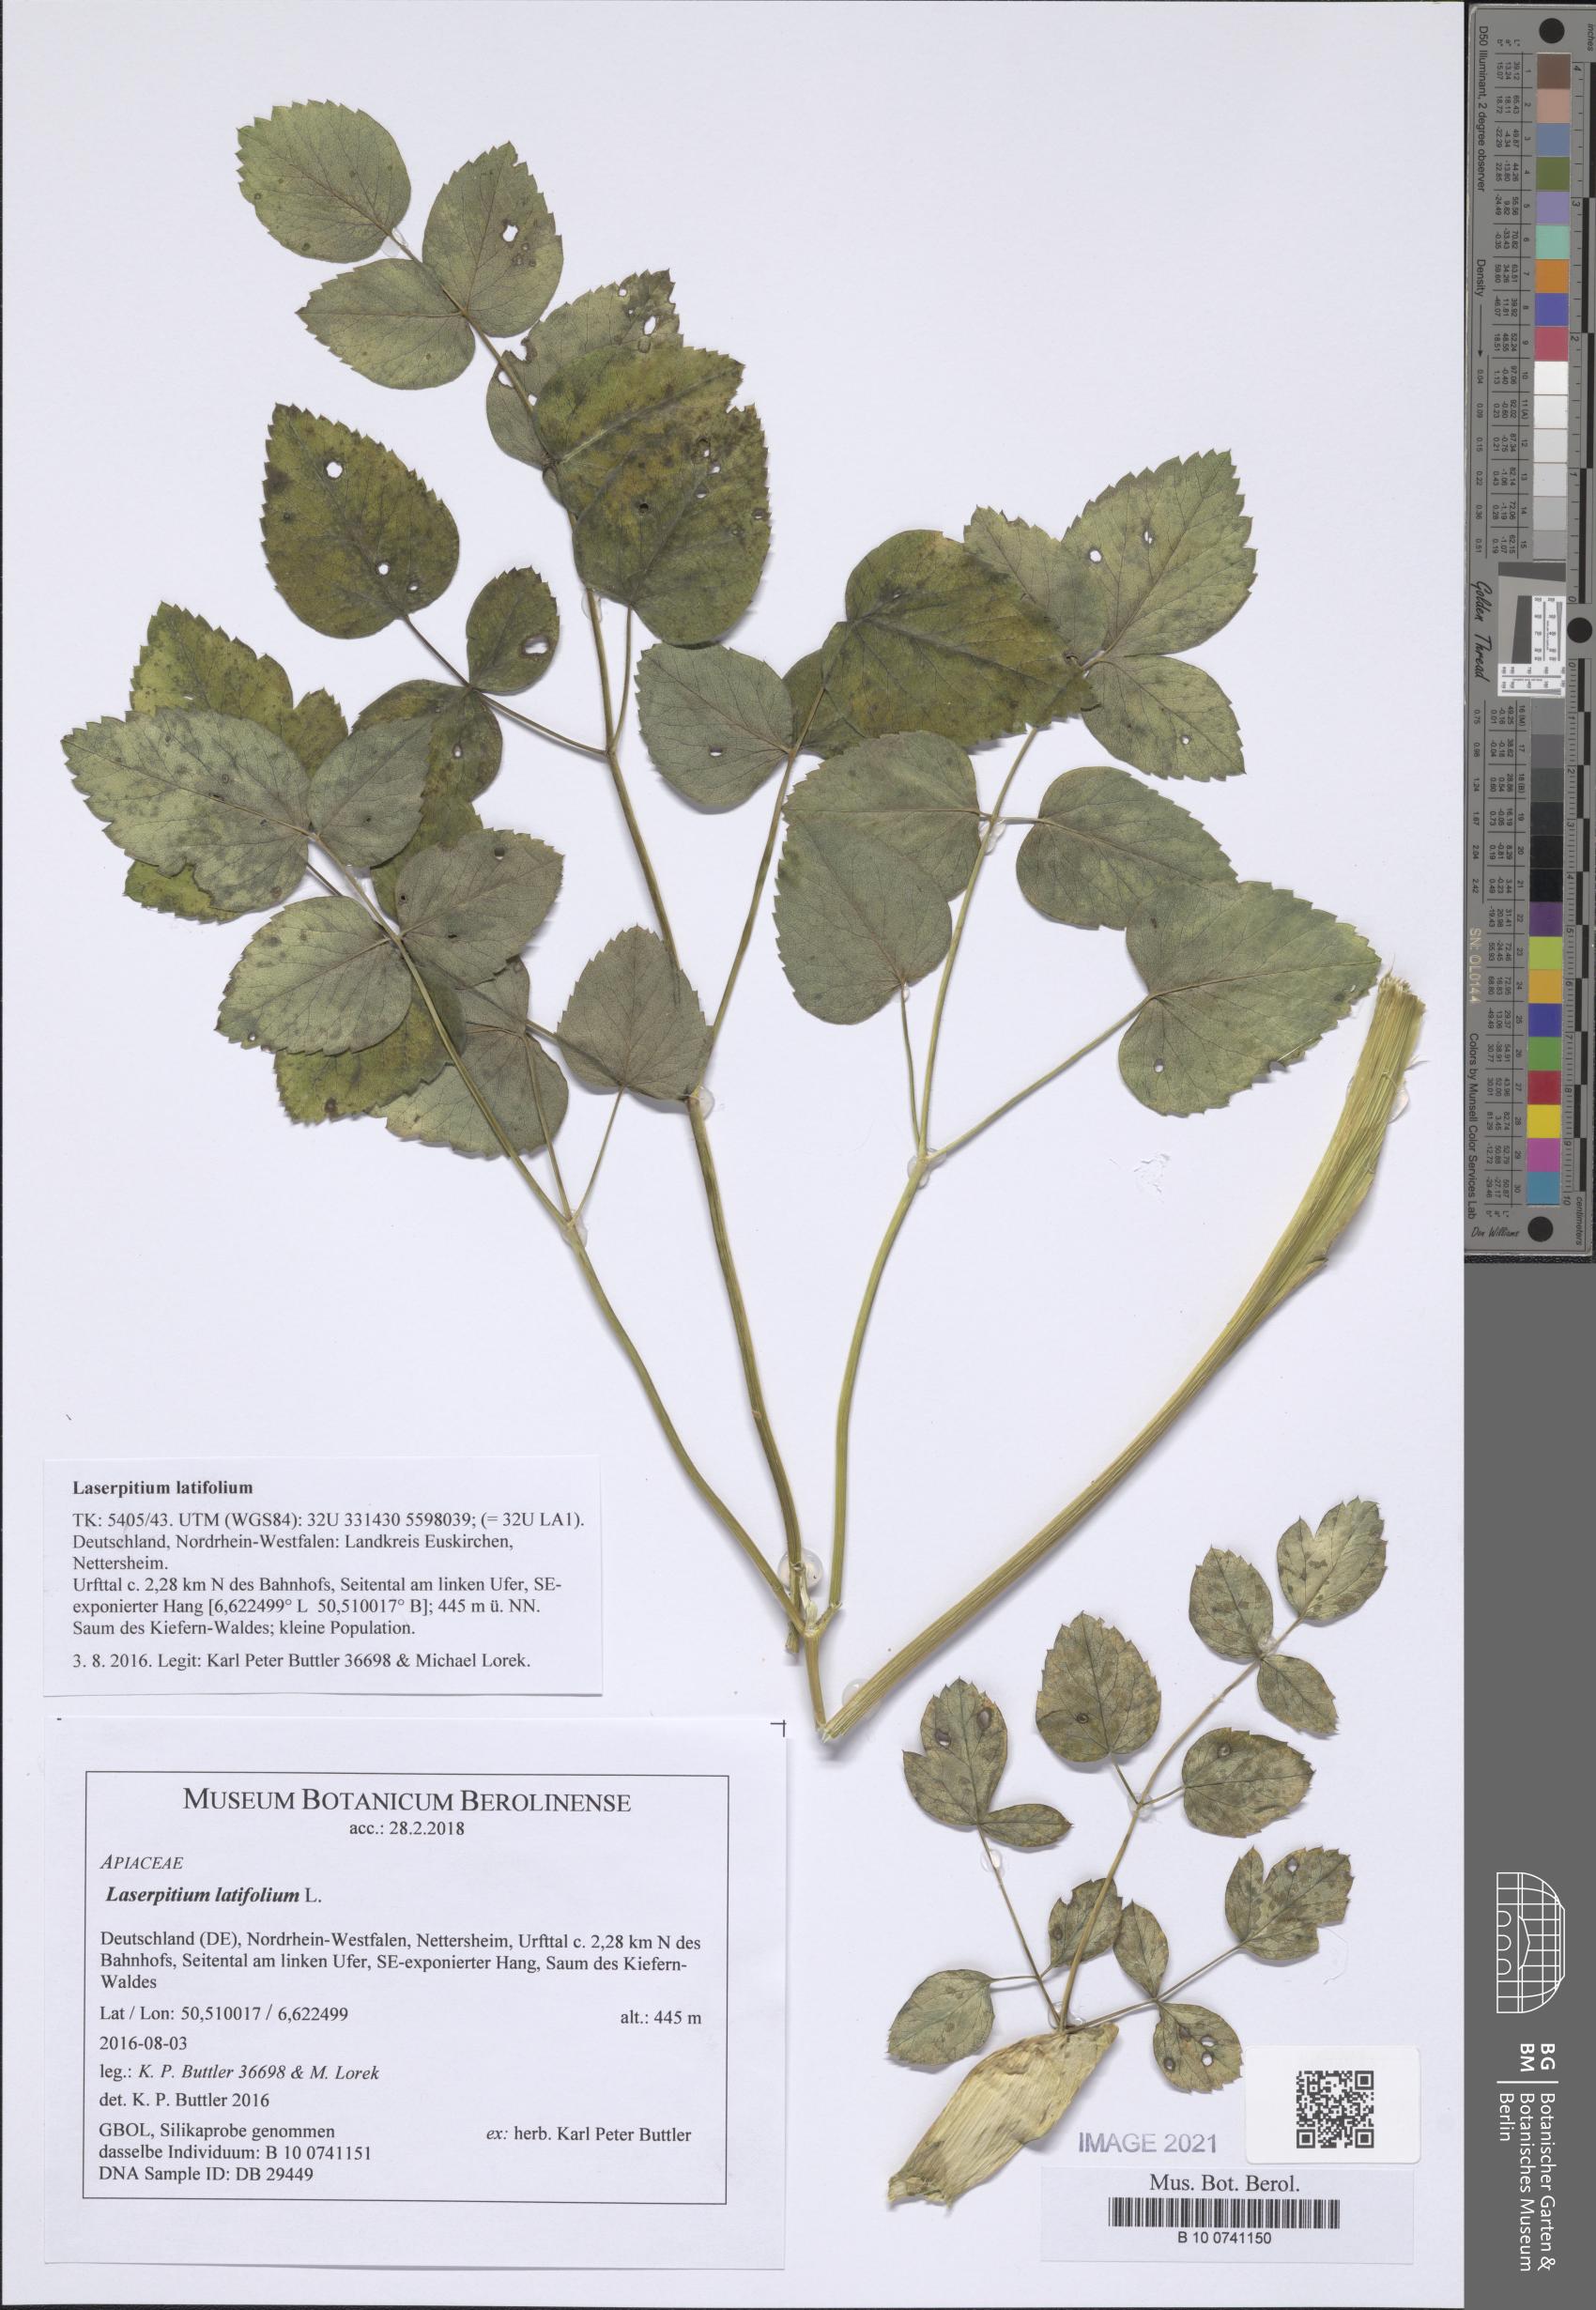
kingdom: Plantae
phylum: Tracheophyta
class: Magnoliopsida
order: Apiales
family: Apiaceae
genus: Laserpitium
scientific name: Laserpitium latifolium
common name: Broadleaf sermountain
